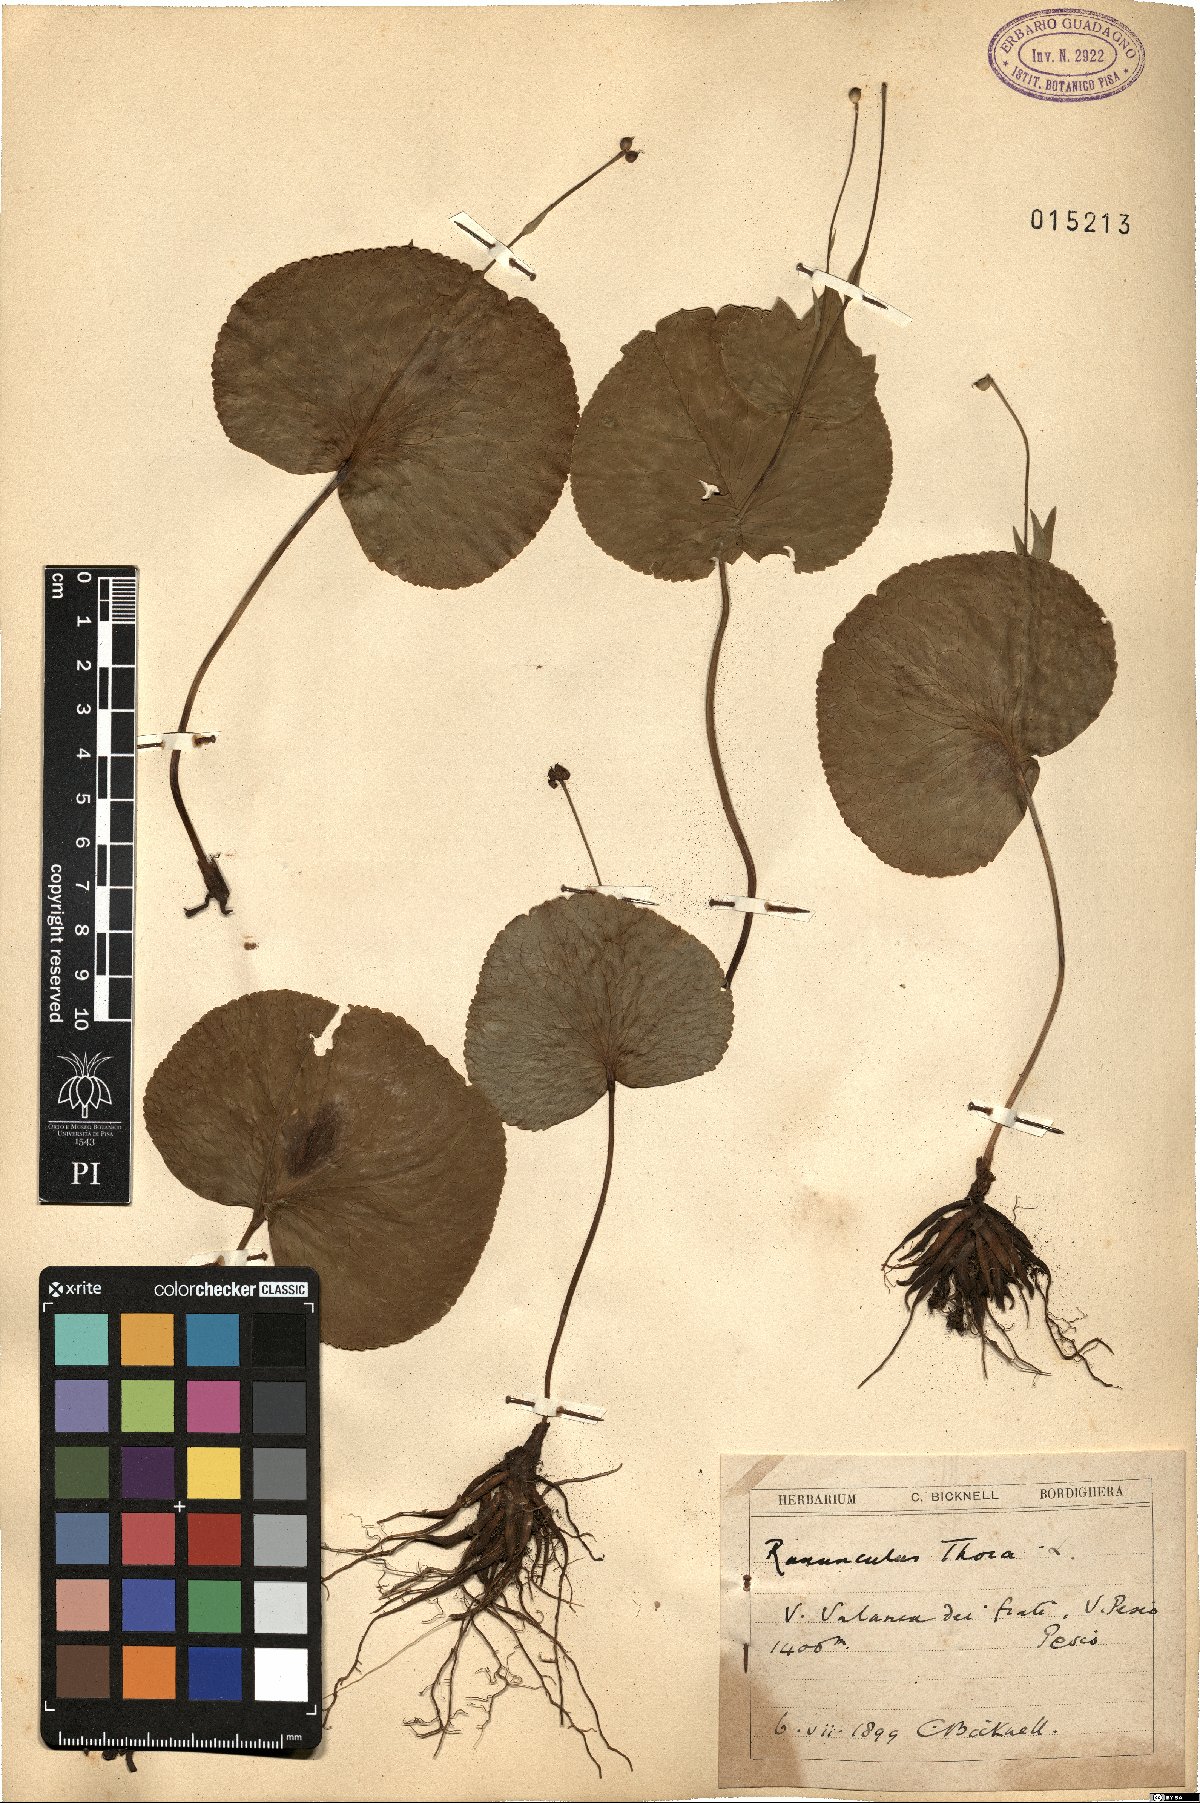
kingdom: Plantae
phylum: Tracheophyta
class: Magnoliopsida
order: Ranunculales
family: Ranunculaceae
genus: Ranunculus
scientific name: Ranunculus thora
